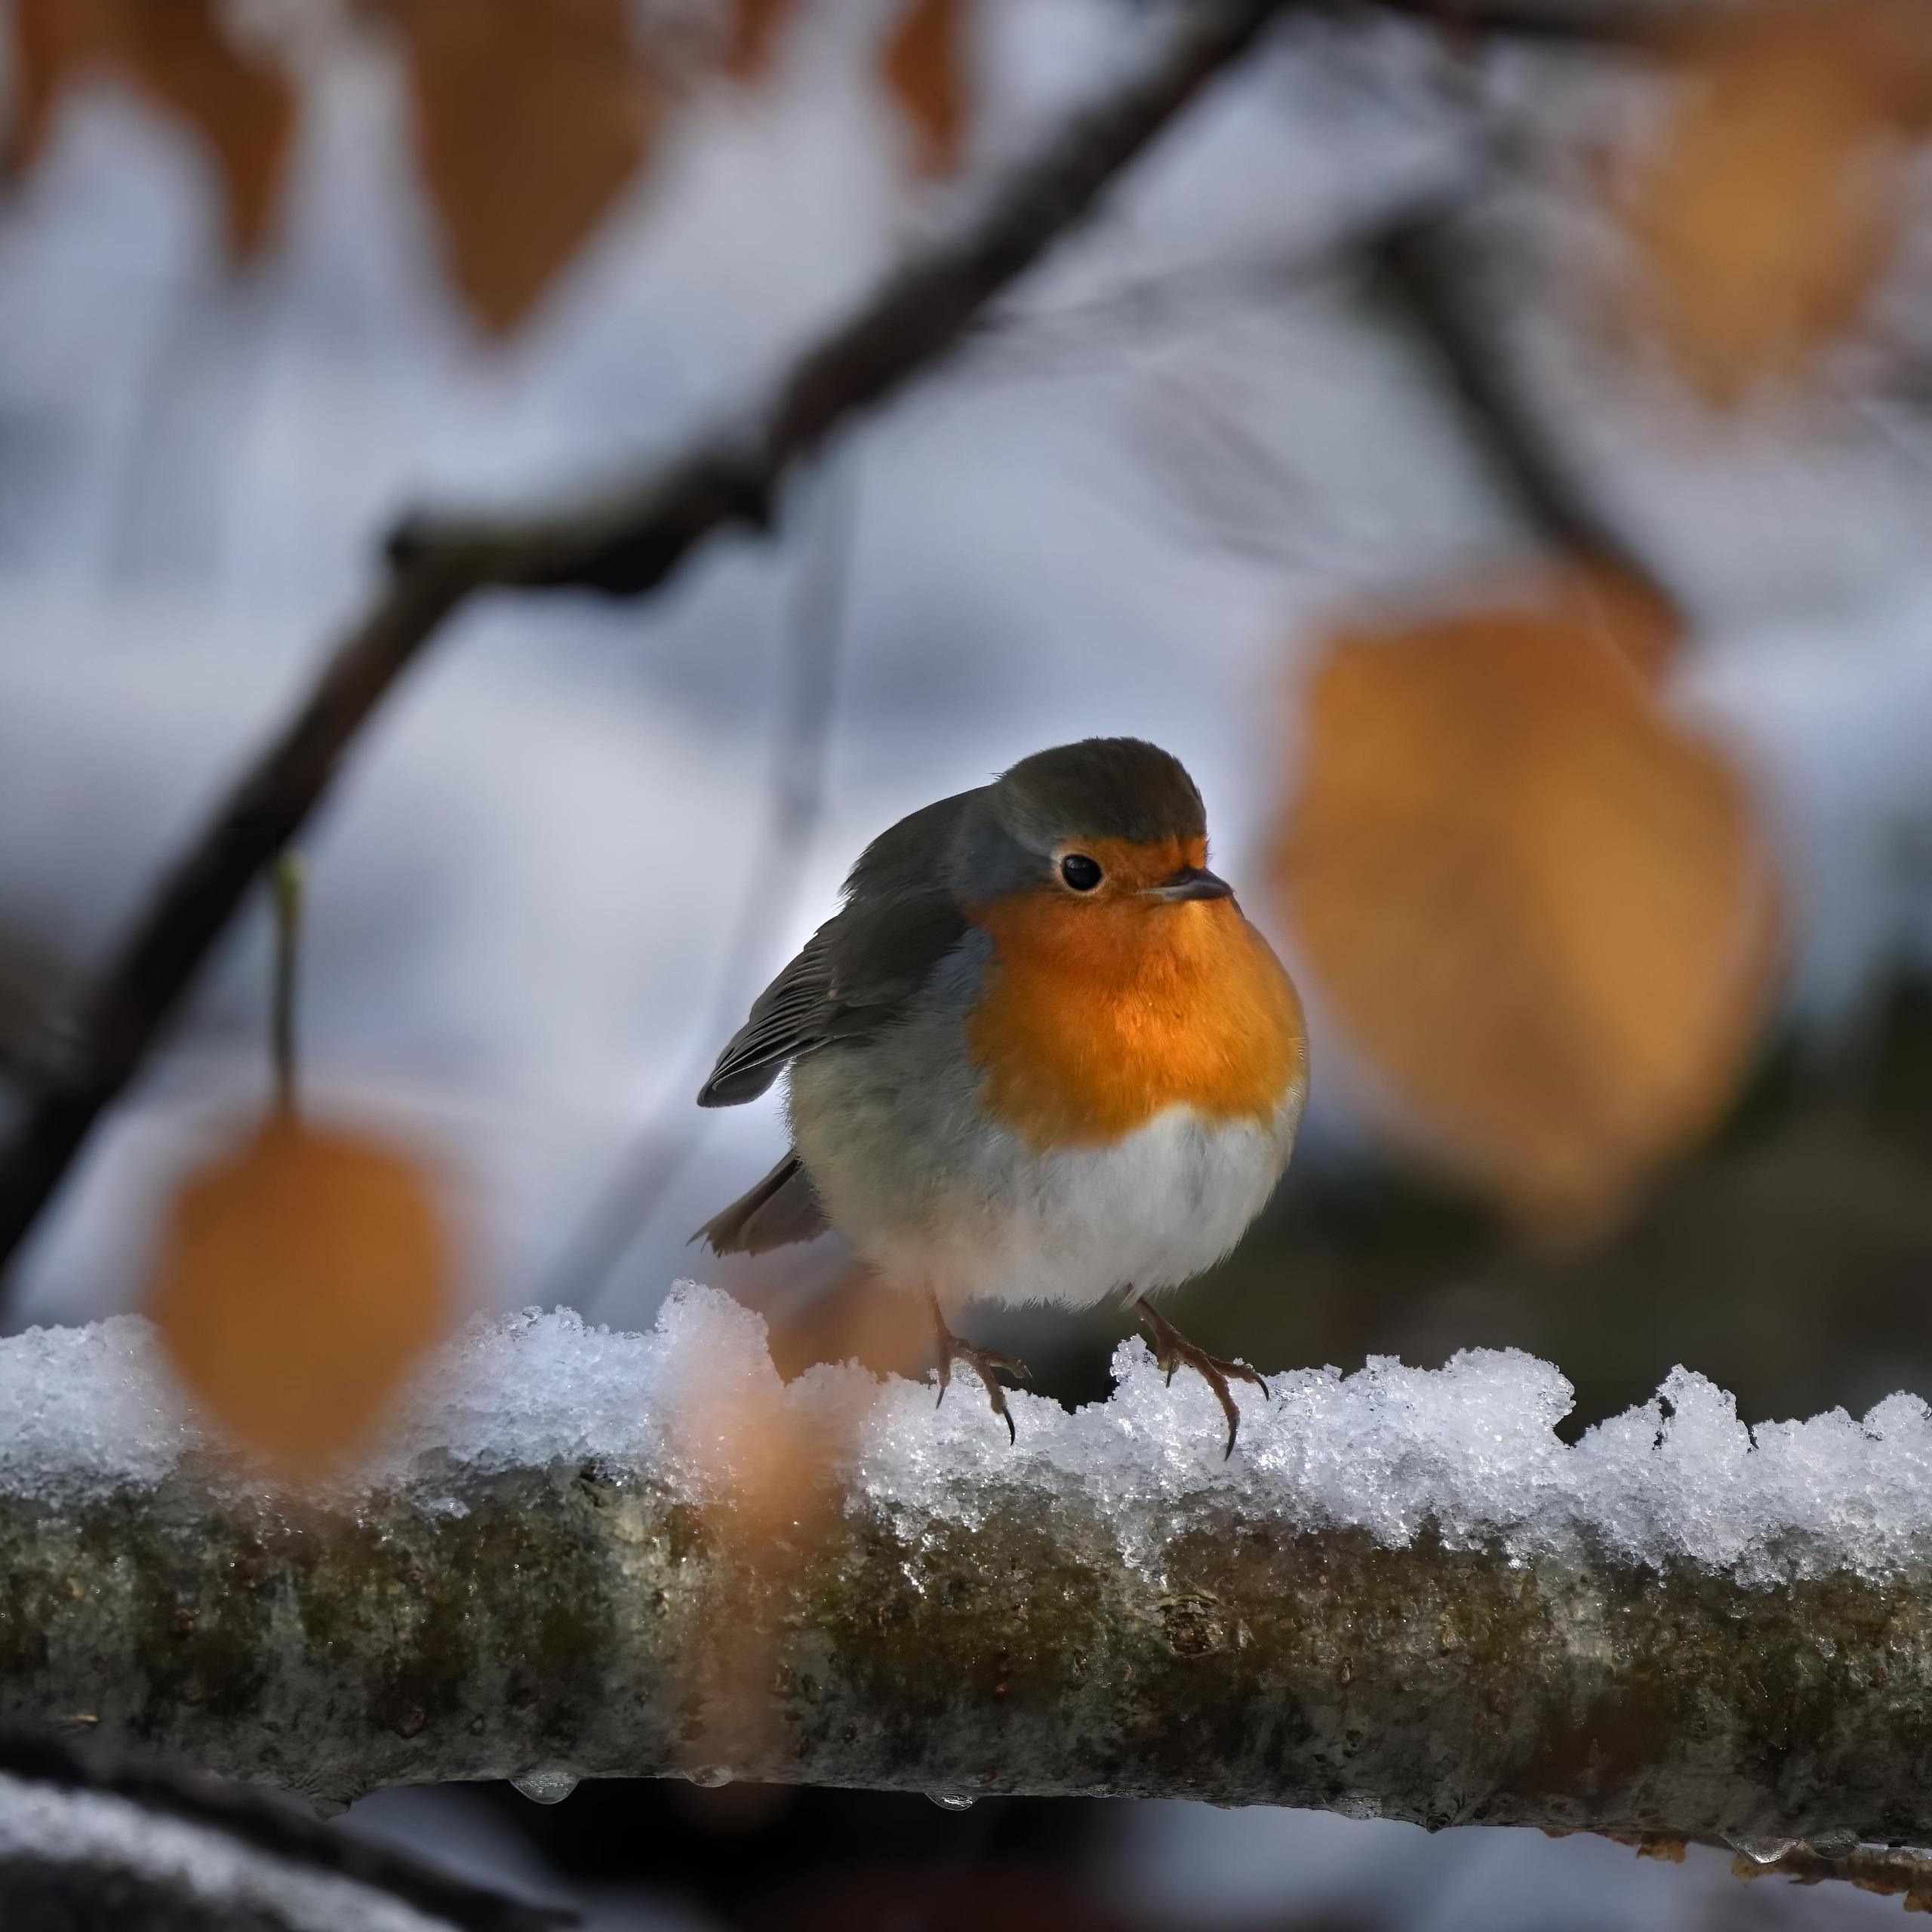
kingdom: Animalia
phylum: Chordata
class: Aves
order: Passeriformes
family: Muscicapidae
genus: Erithacus
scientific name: Erithacus rubecula
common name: Rødhals/rødkælk
